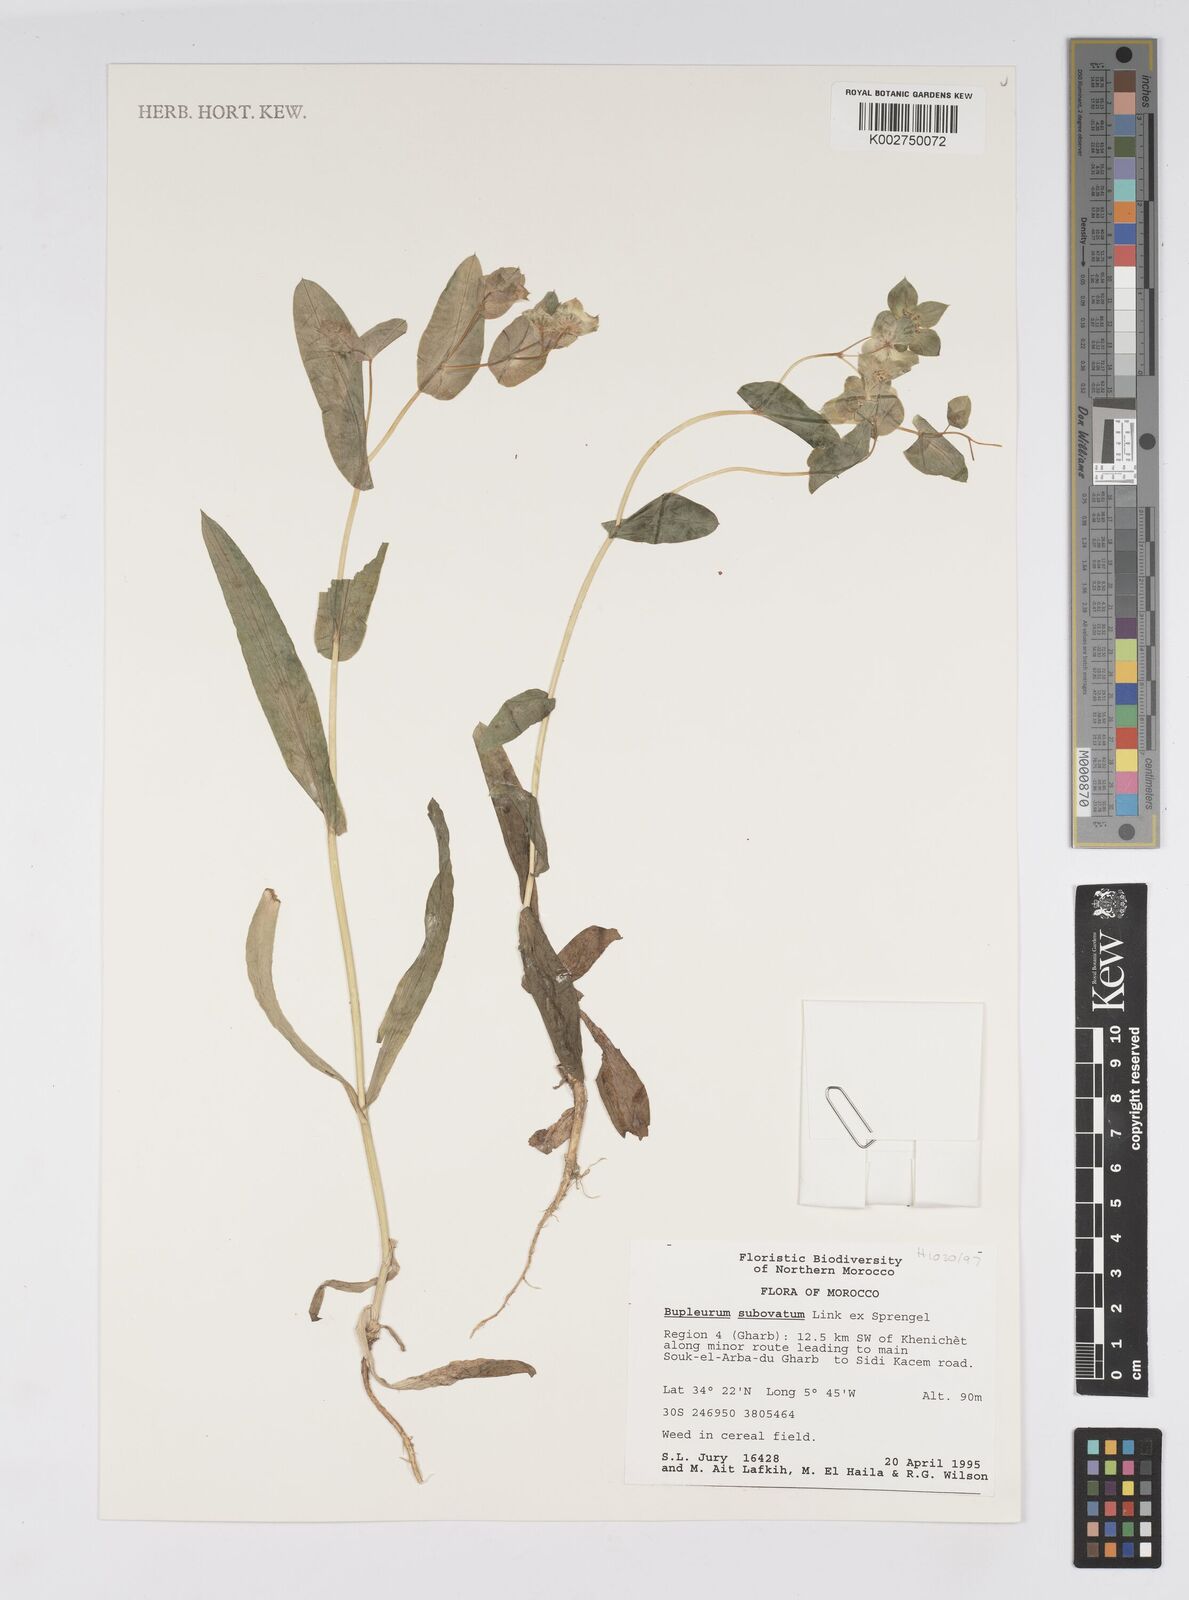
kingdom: Plantae
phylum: Tracheophyta
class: Magnoliopsida
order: Apiales
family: Apiaceae
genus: Bupleurum
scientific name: Bupleurum subovatum
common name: False thorow-wax
